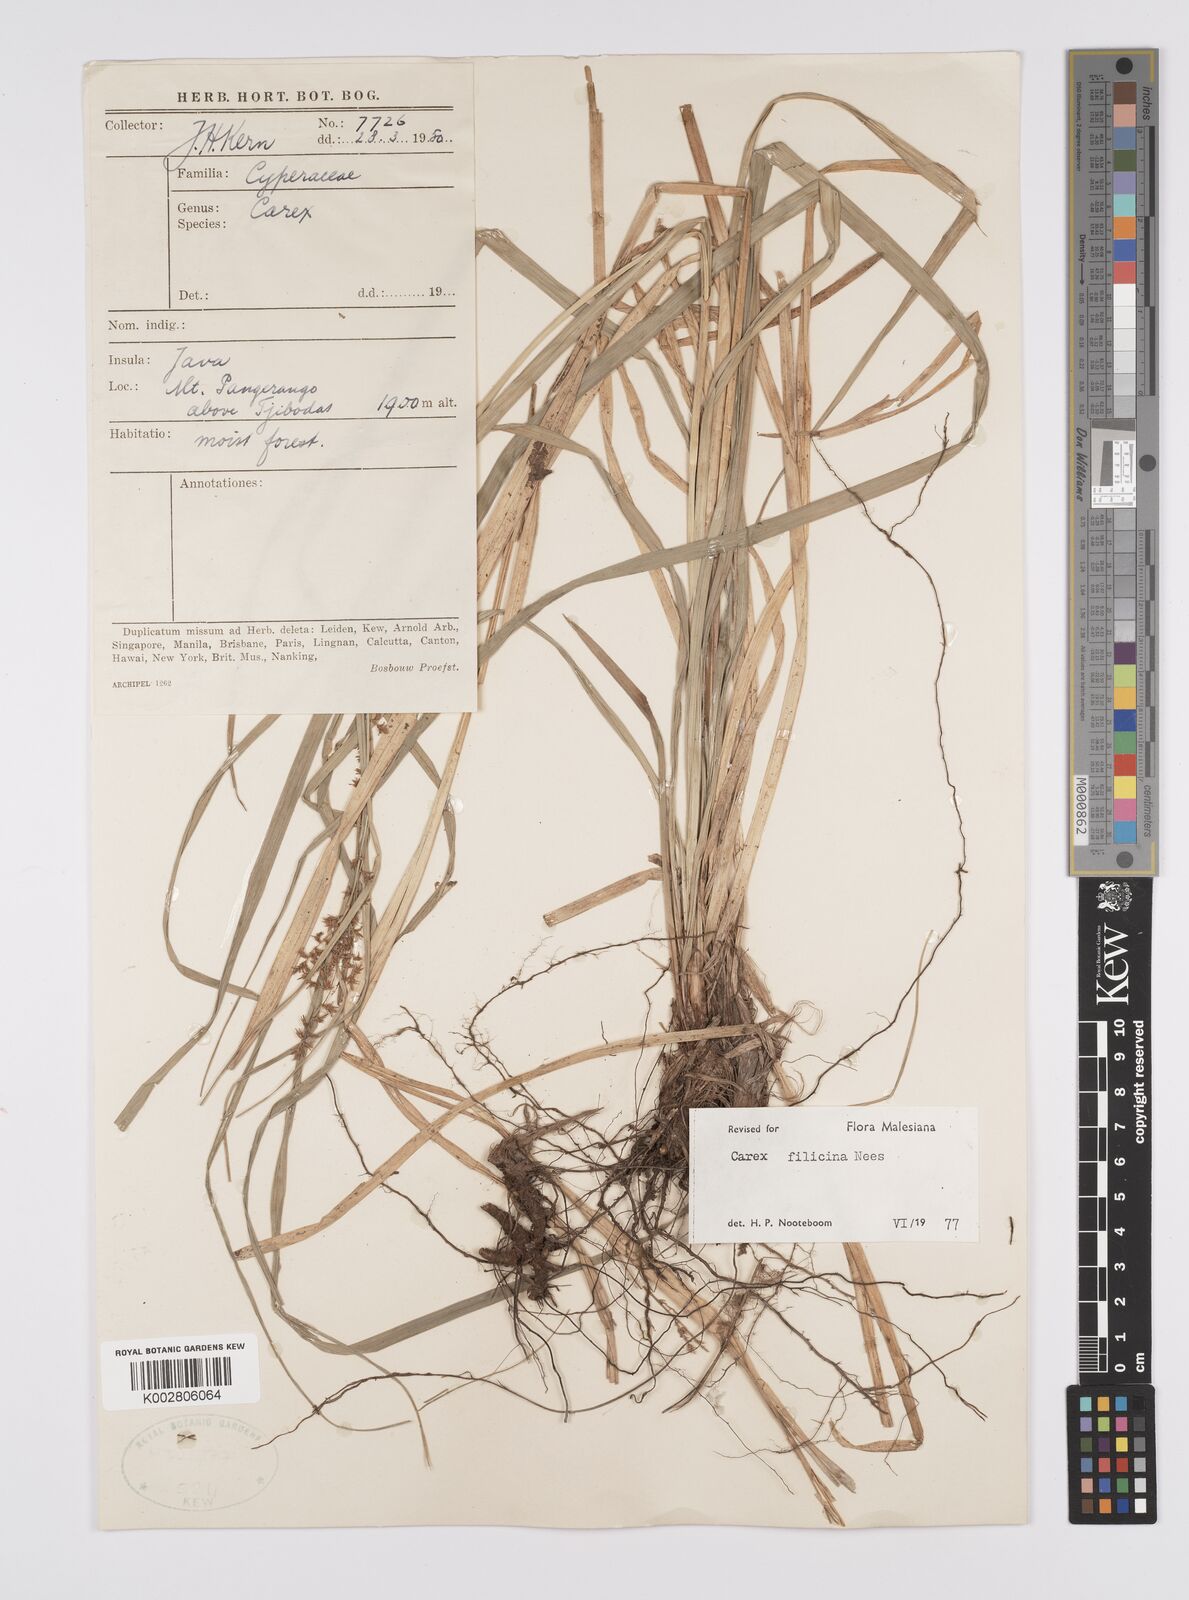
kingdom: Plantae
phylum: Tracheophyta
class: Liliopsida
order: Poales
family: Cyperaceae
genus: Carex
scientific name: Carex filicina
